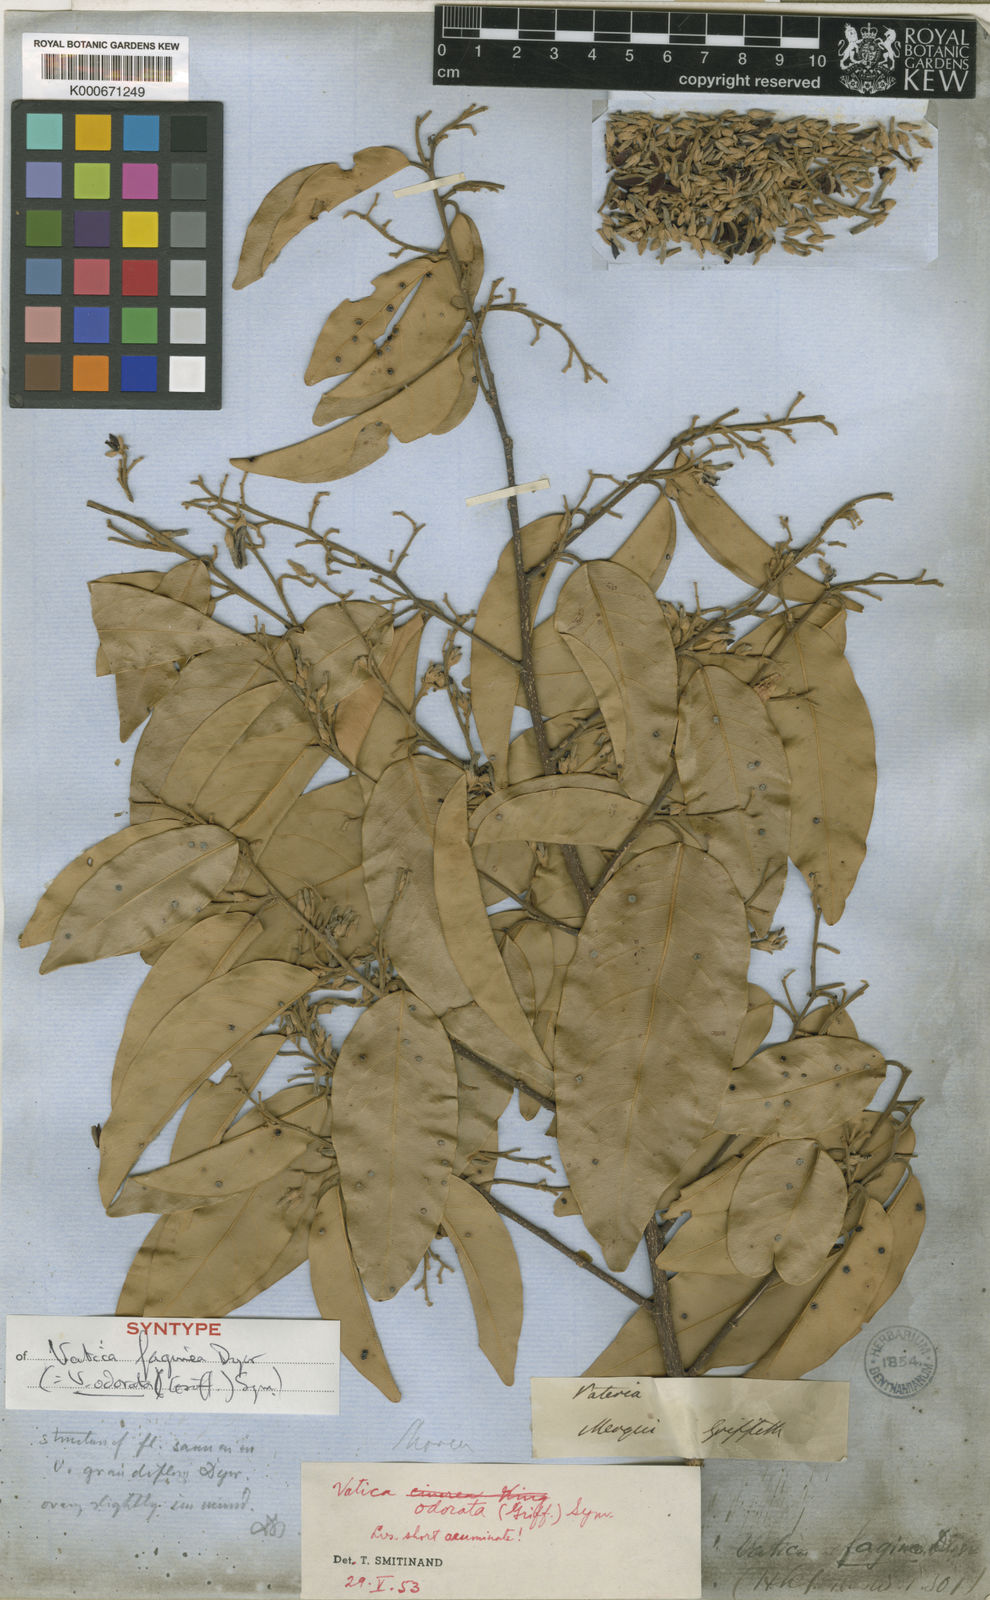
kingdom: Plantae
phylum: Tracheophyta
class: Magnoliopsida
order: Malvales
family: Dipterocarpaceae
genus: Vatica
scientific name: Vatica odorata
